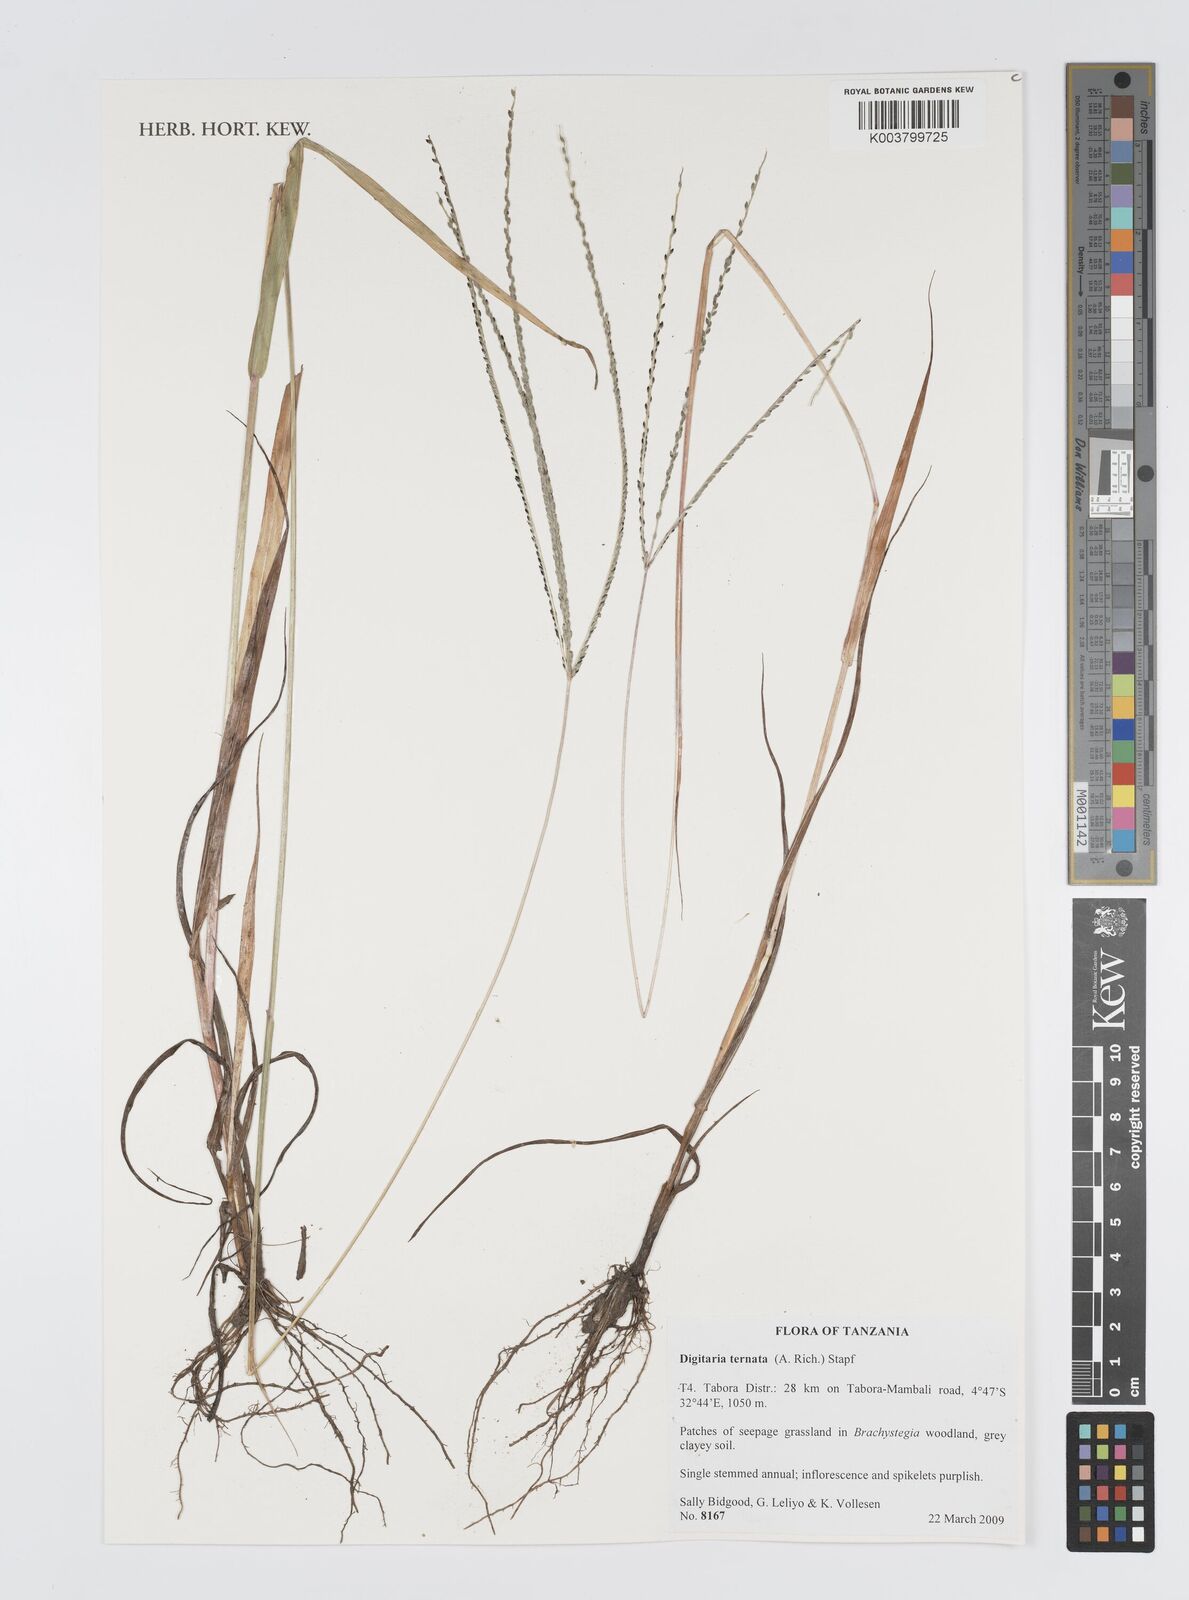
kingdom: Plantae
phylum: Tracheophyta
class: Liliopsida
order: Poales
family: Poaceae
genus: Digitaria
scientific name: Digitaria ternata
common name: Blackseed crabgrass
